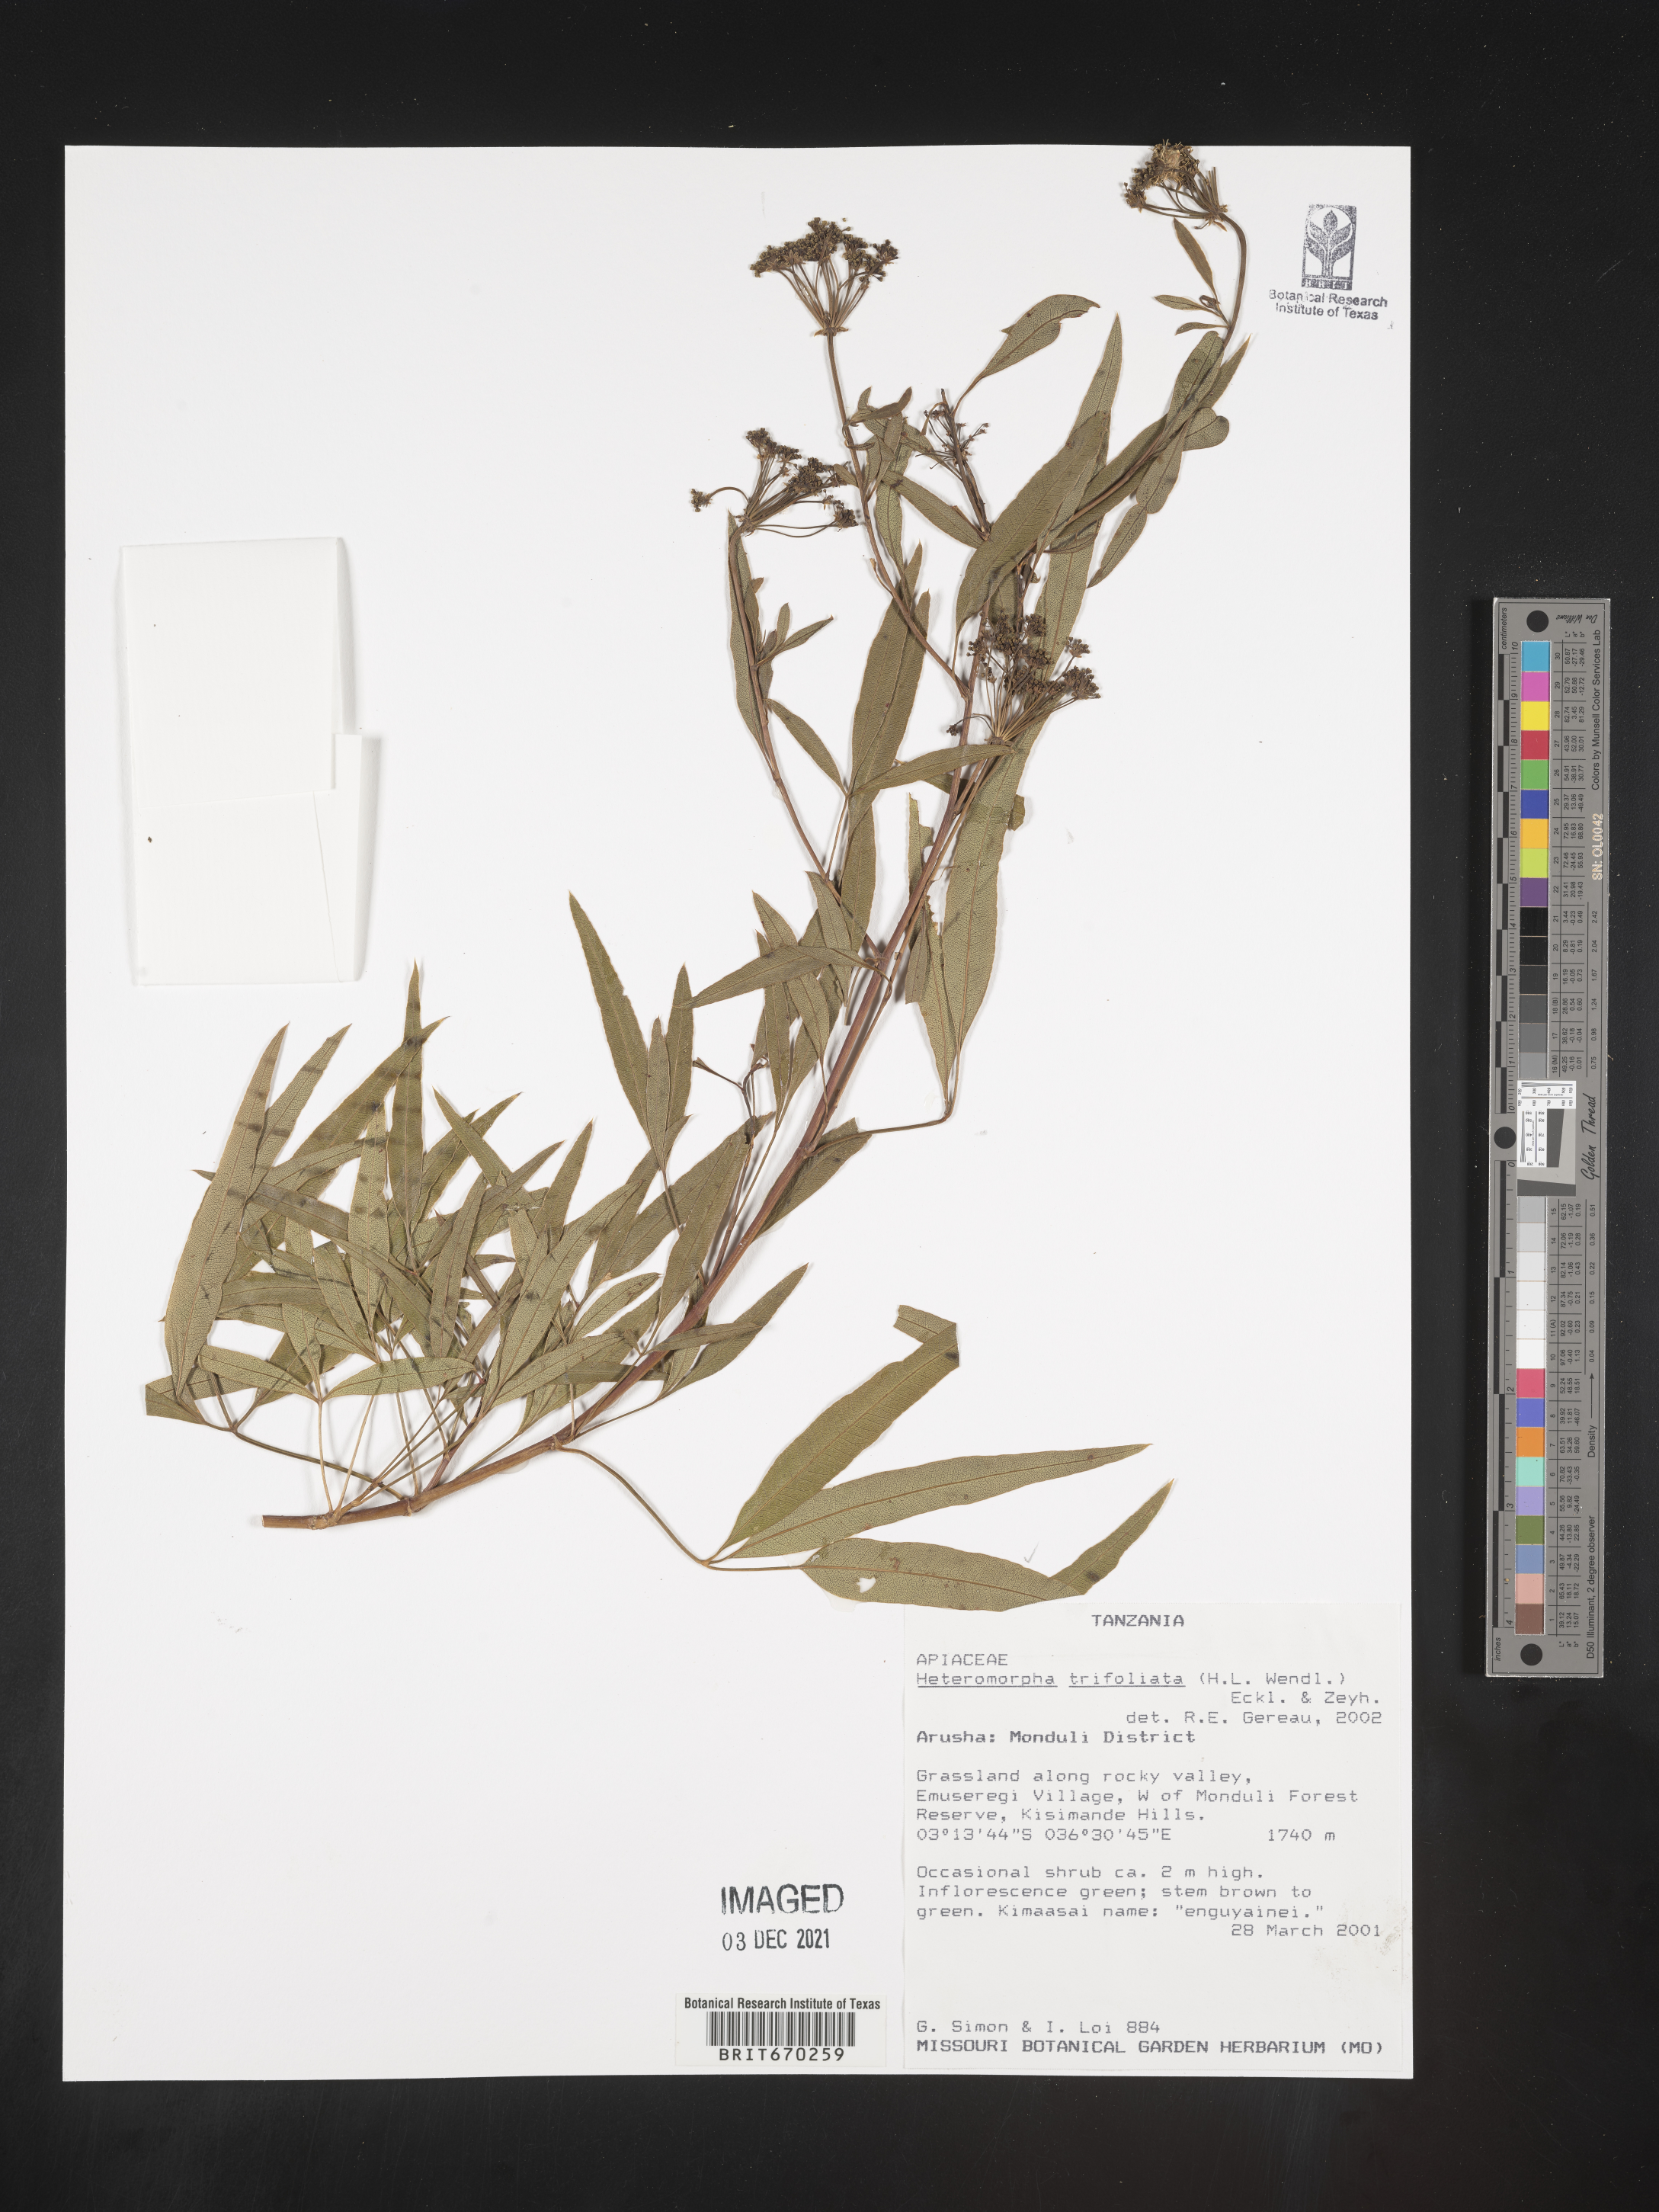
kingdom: Plantae
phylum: Tracheophyta
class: Magnoliopsida
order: Apiales
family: Apiaceae
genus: Heteromorpha
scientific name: Heteromorpha
